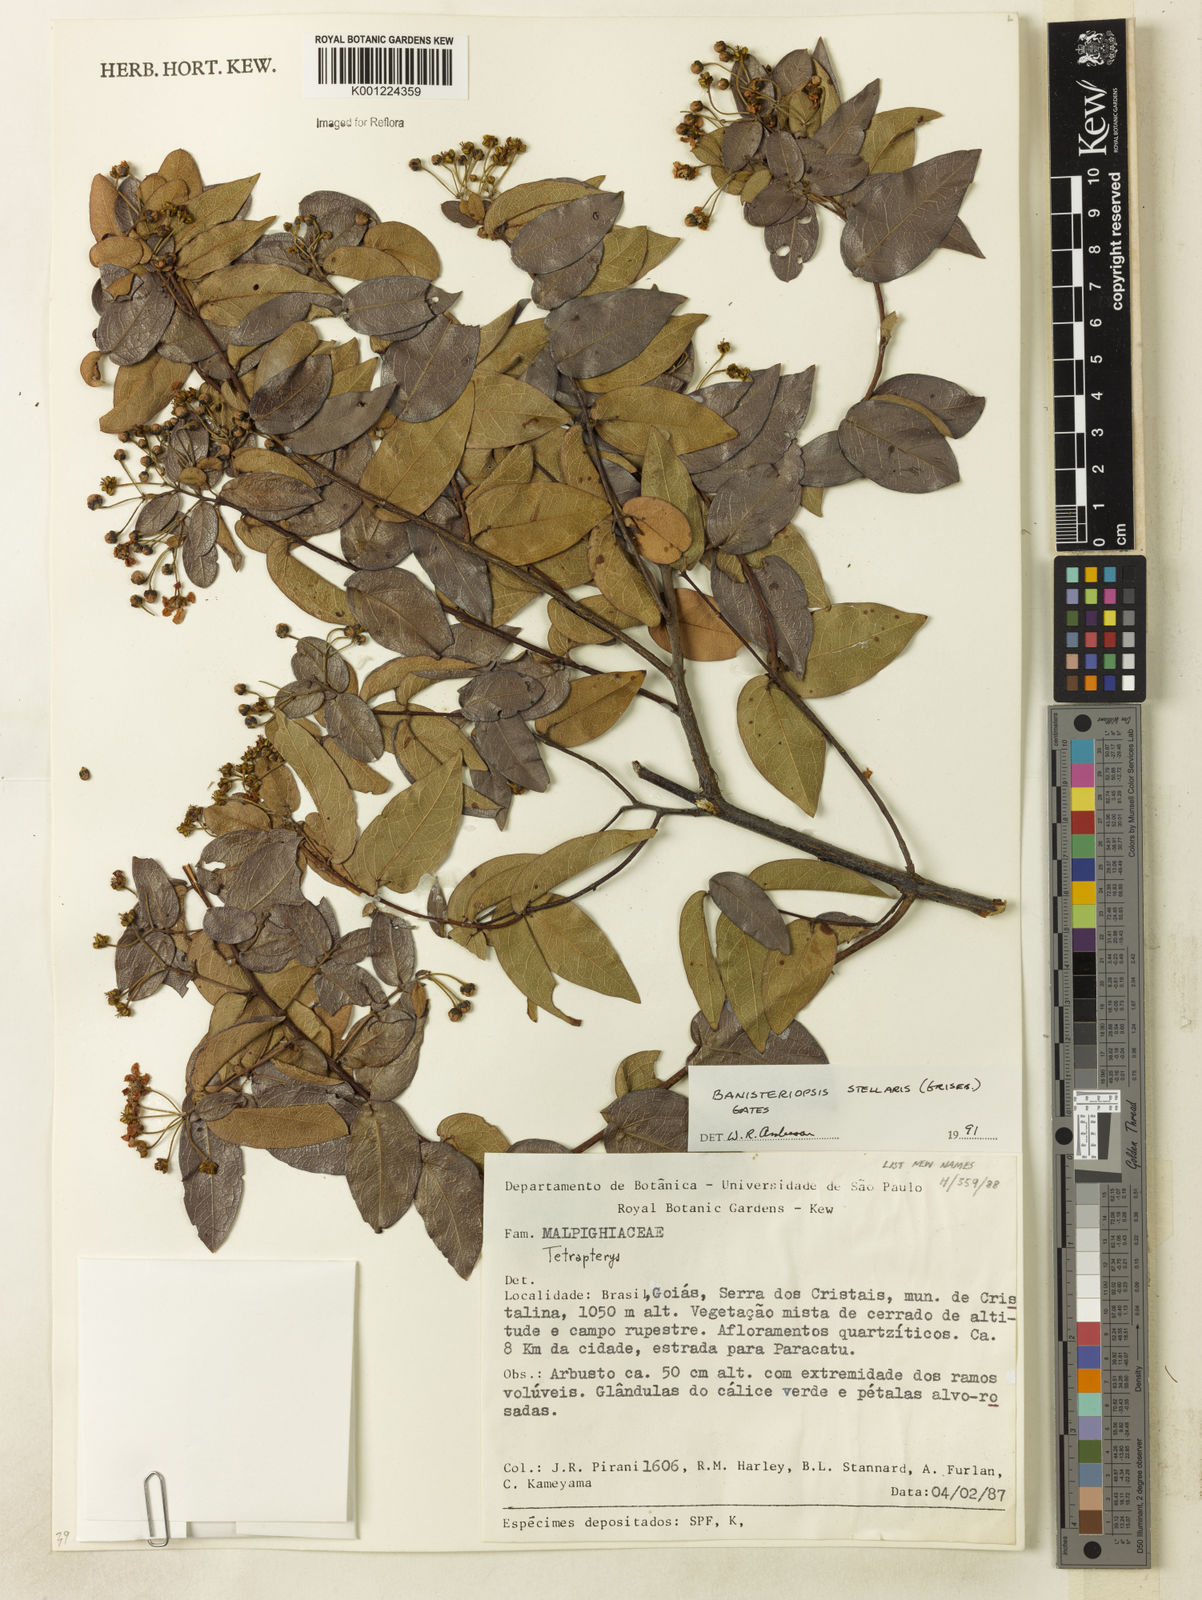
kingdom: Plantae
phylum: Tracheophyta
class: Magnoliopsida
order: Malpighiales
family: Malpighiaceae
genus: Banisteriopsis
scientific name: Banisteriopsis stellaris
